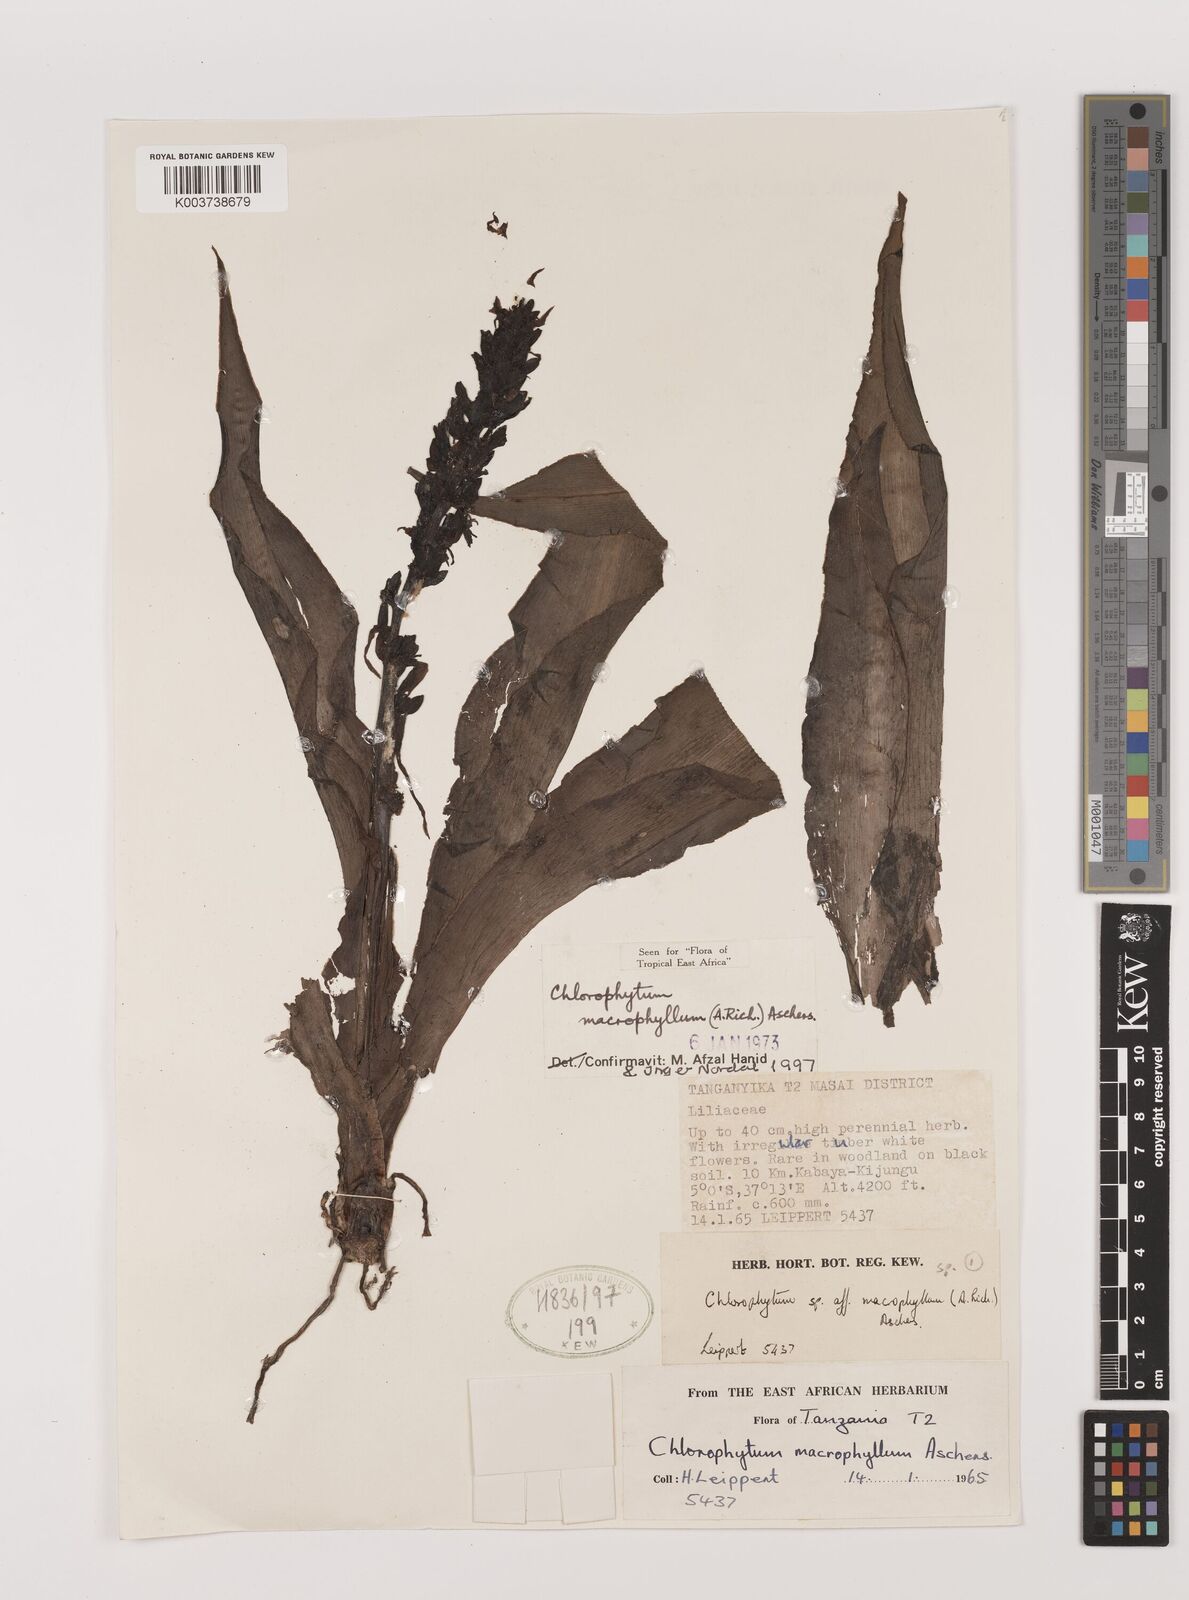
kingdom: Plantae
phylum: Tracheophyta
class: Liliopsida
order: Asparagales
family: Asparagaceae
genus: Chlorophytum
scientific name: Chlorophytum macrophyllum
